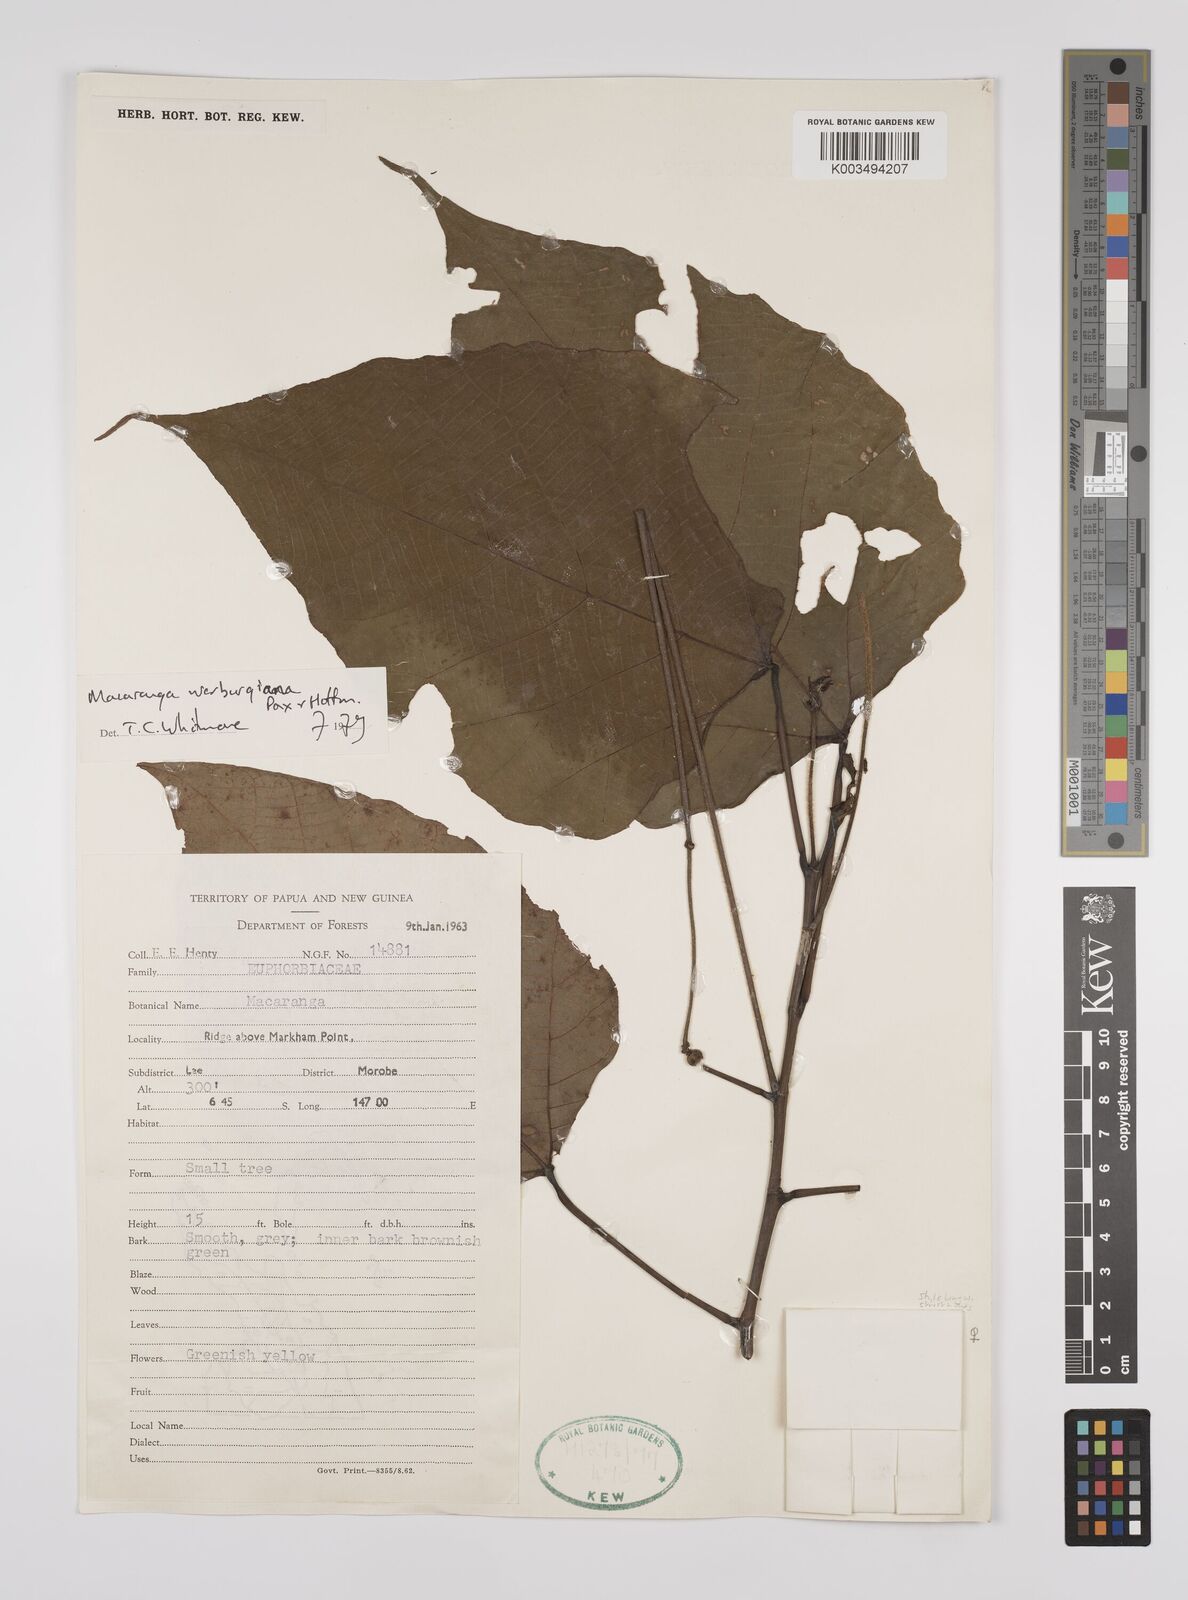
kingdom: Plantae
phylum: Tracheophyta
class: Magnoliopsida
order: Malpighiales
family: Euphorbiaceae
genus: Macaranga
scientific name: Macaranga warburgiana
